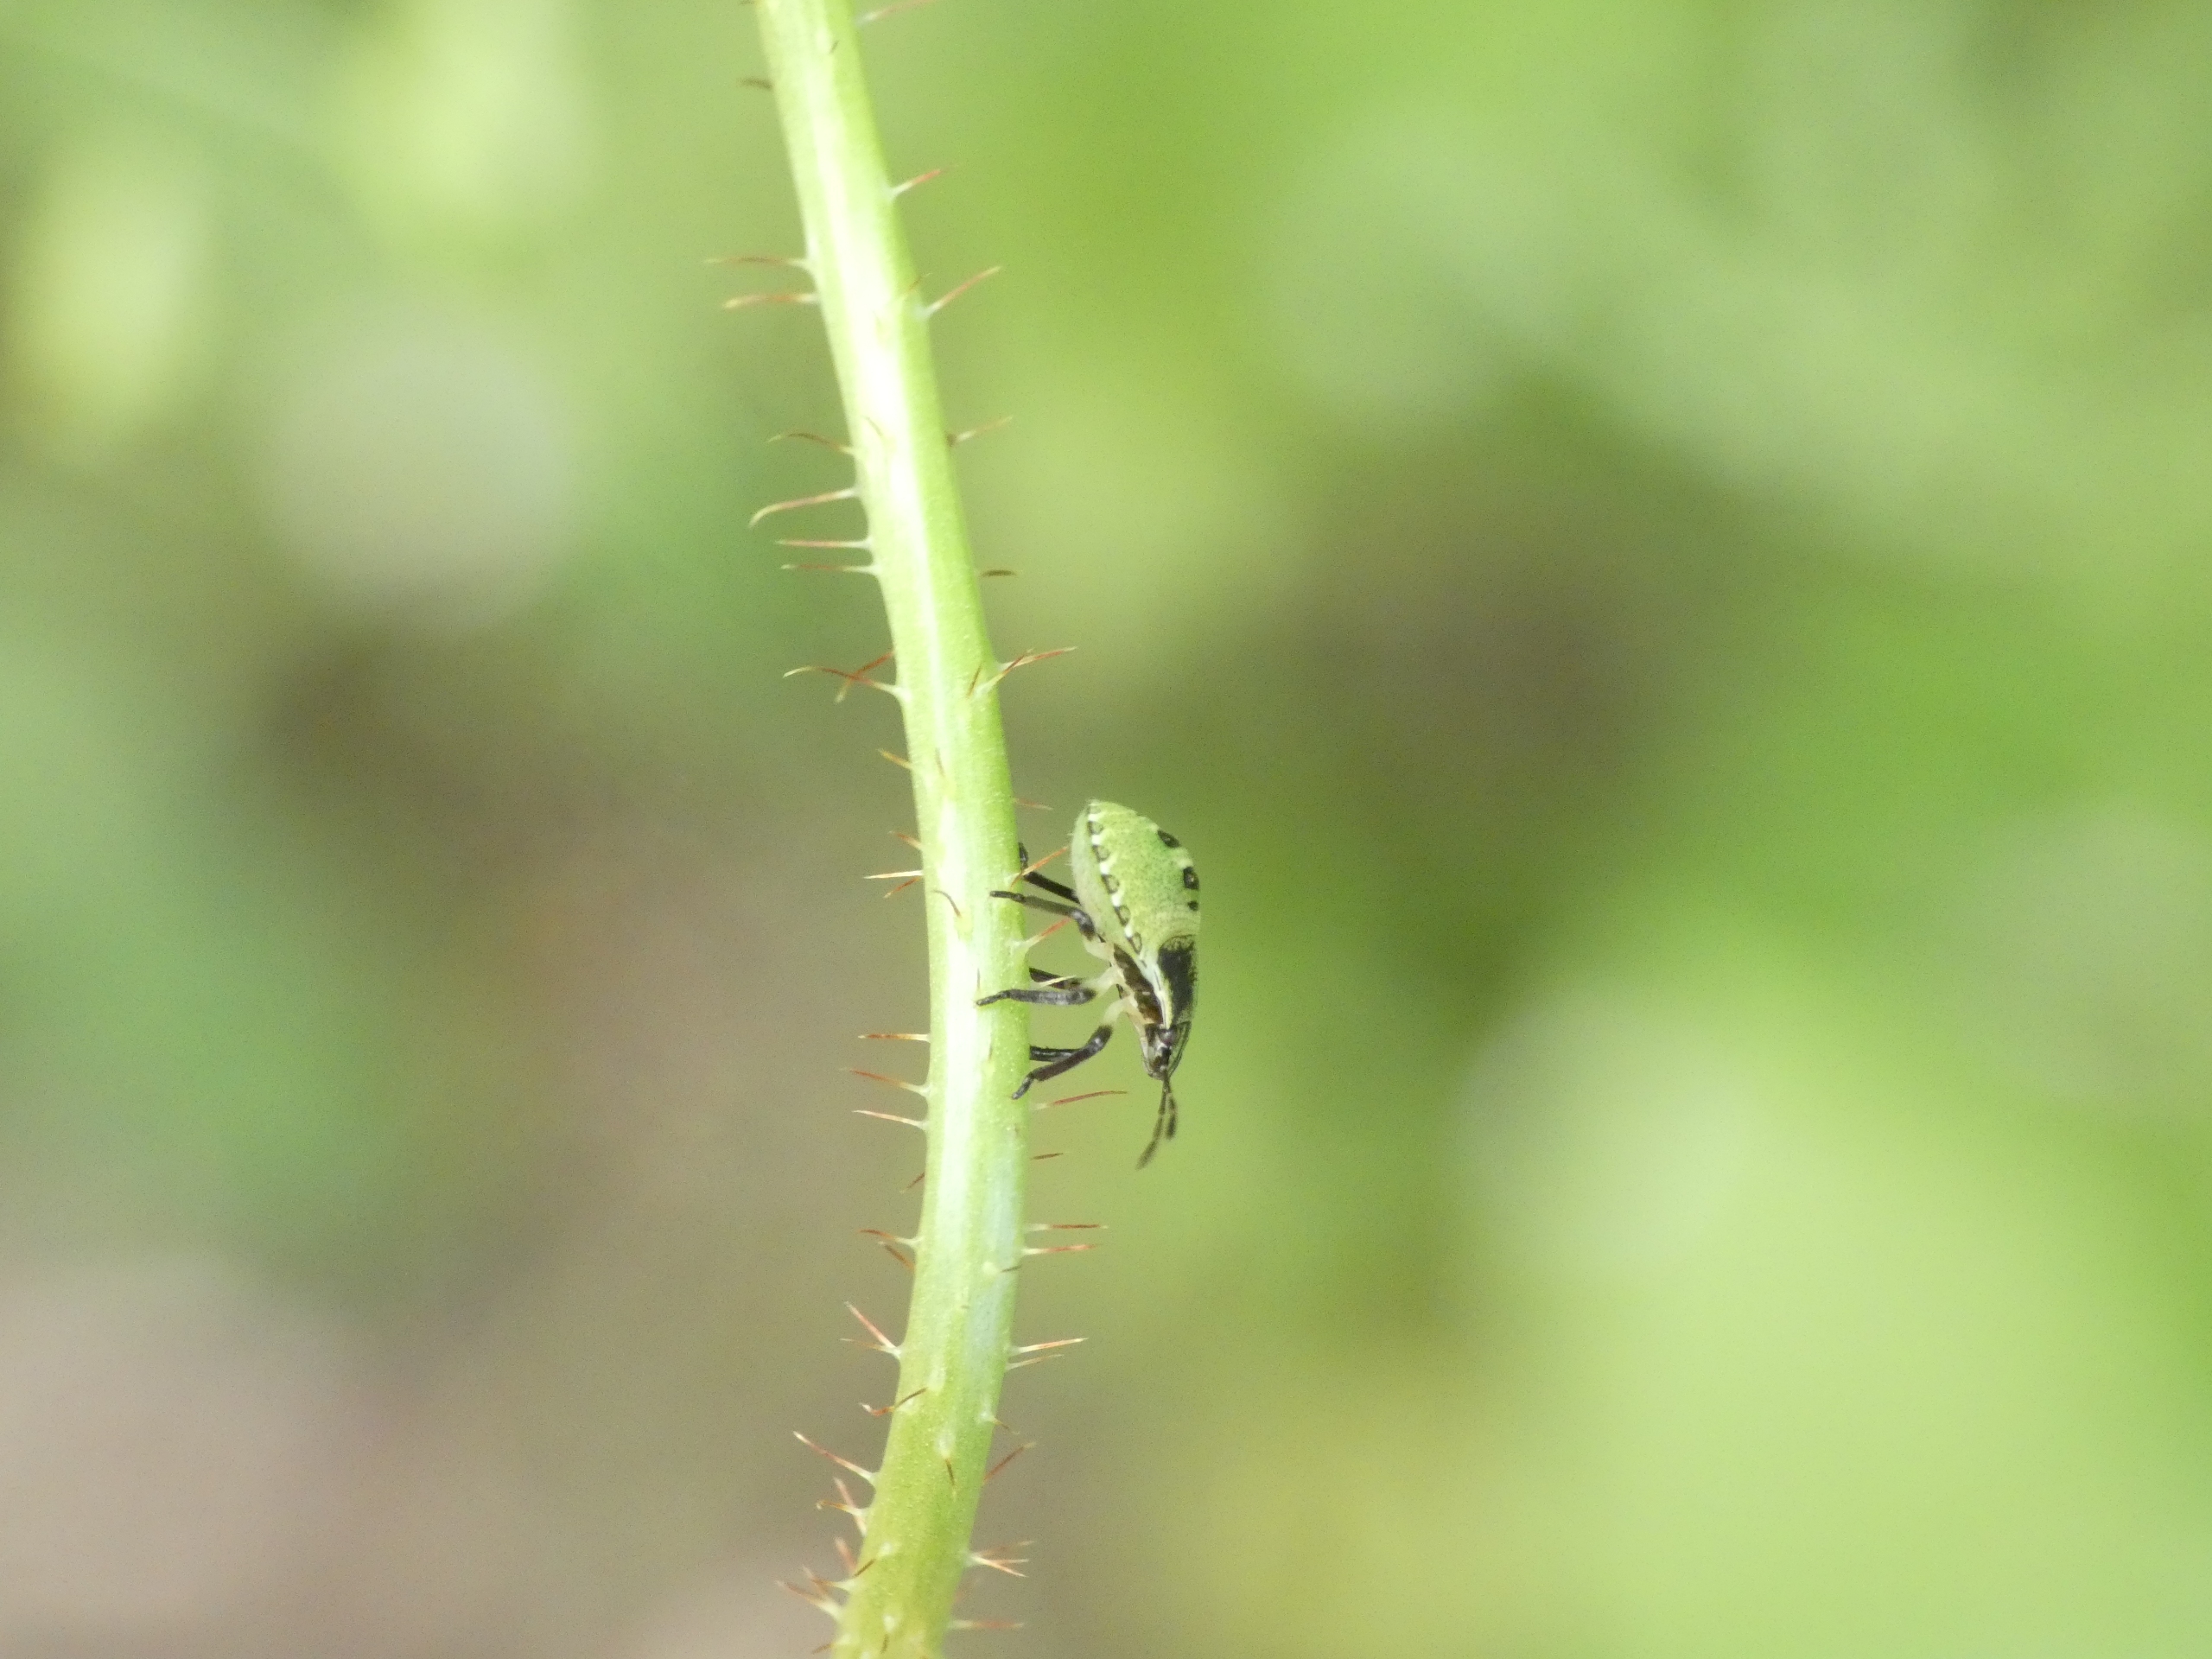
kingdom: Animalia
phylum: Arthropoda
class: Insecta
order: Hemiptera
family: Pentatomidae
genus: Palomena
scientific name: Palomena prasina
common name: Grøn bredtæge
